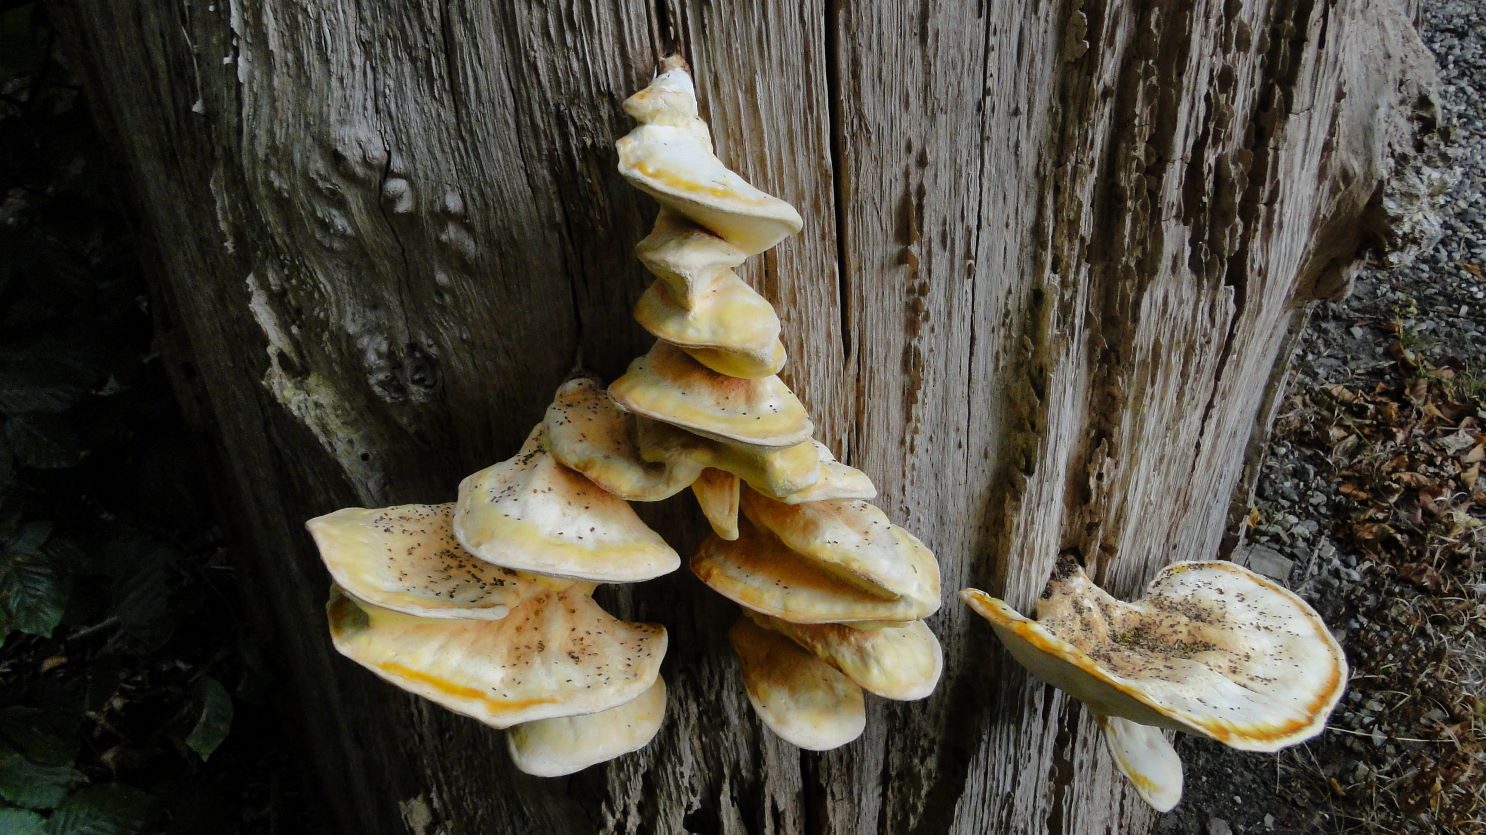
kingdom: Fungi
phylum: Basidiomycota
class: Agaricomycetes
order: Polyporales
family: Laetiporaceae
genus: Laetiporus
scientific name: Laetiporus sulphureus
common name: svovlporesvamp
